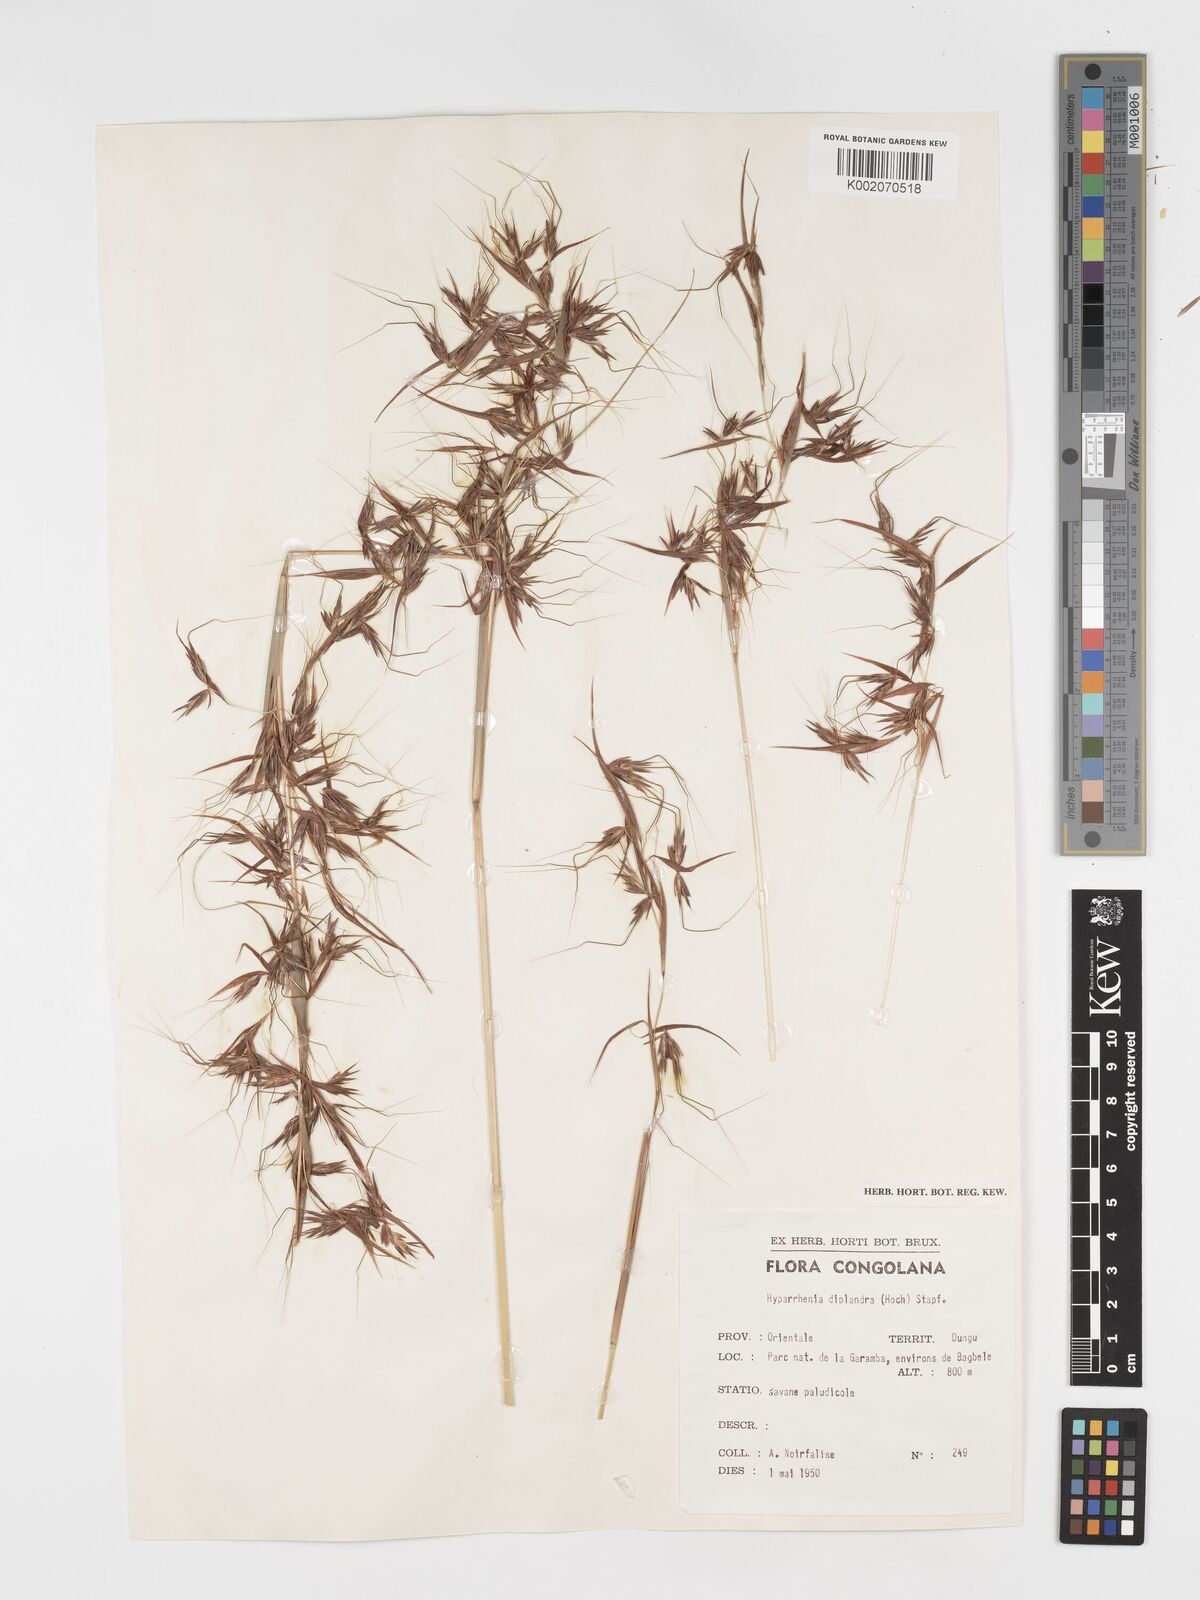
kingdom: Plantae
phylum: Tracheophyta
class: Liliopsida
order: Poales
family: Poaceae
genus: Hyparrhenia
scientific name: Hyparrhenia diplandra
